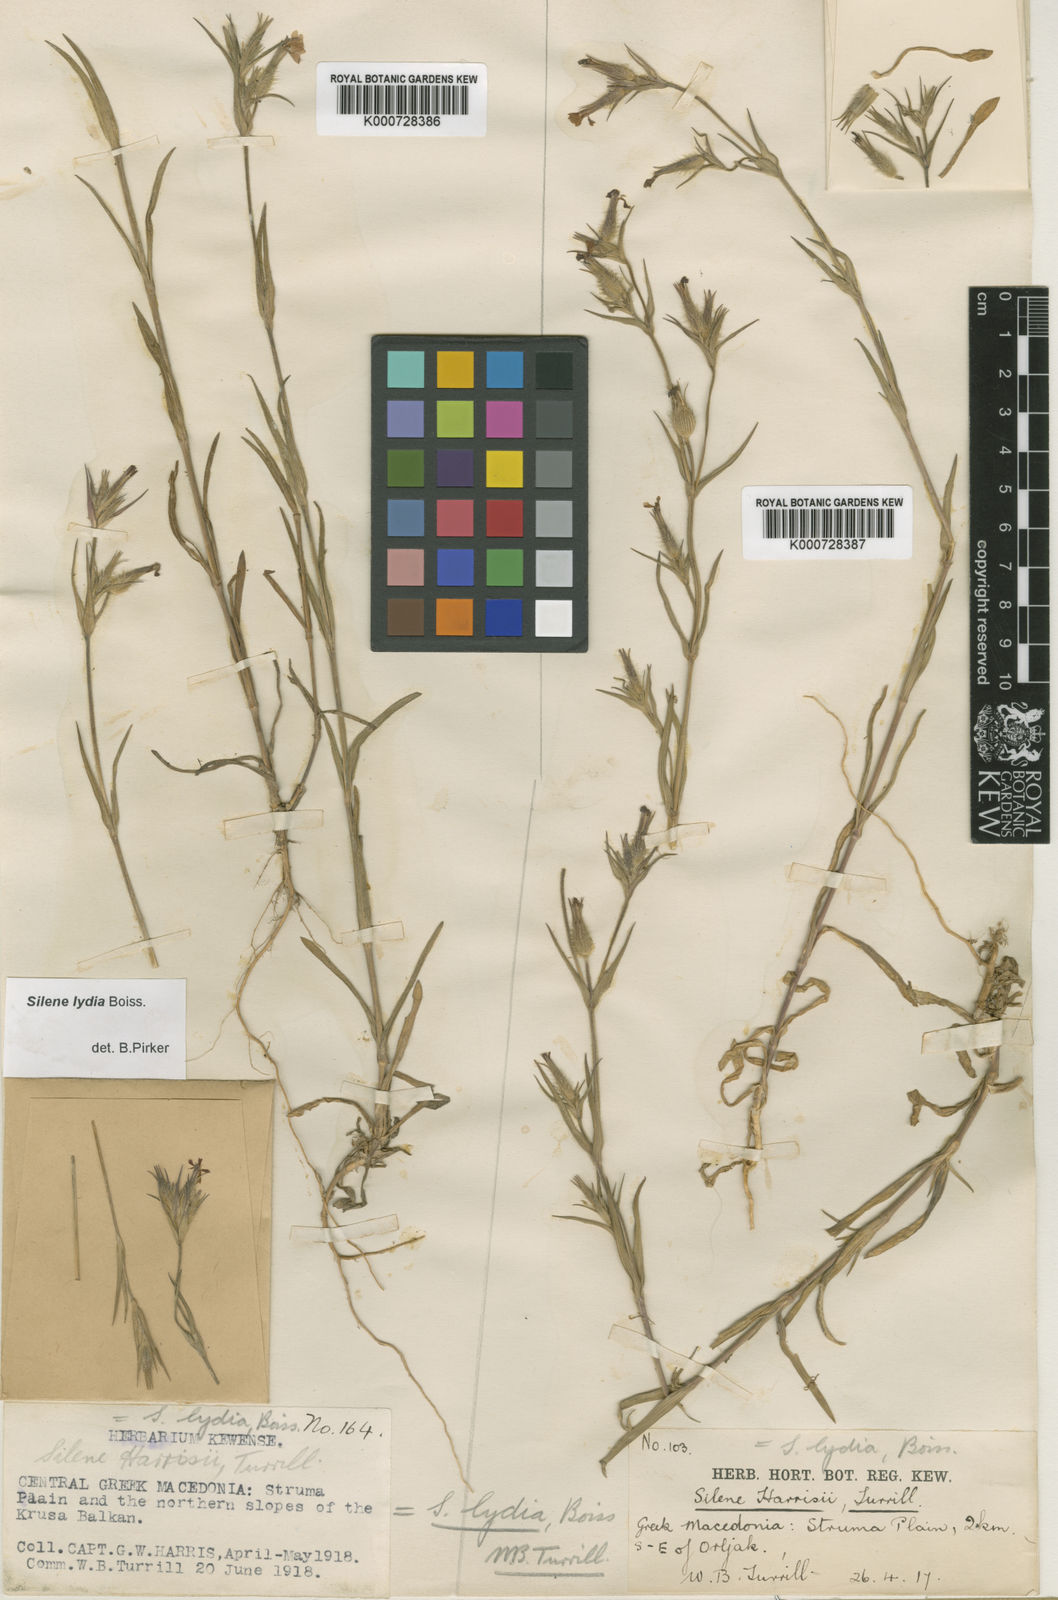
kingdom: Plantae
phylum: Tracheophyta
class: Magnoliopsida
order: Caryophyllales
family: Caryophyllaceae
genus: Silene
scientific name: Silene lydia
